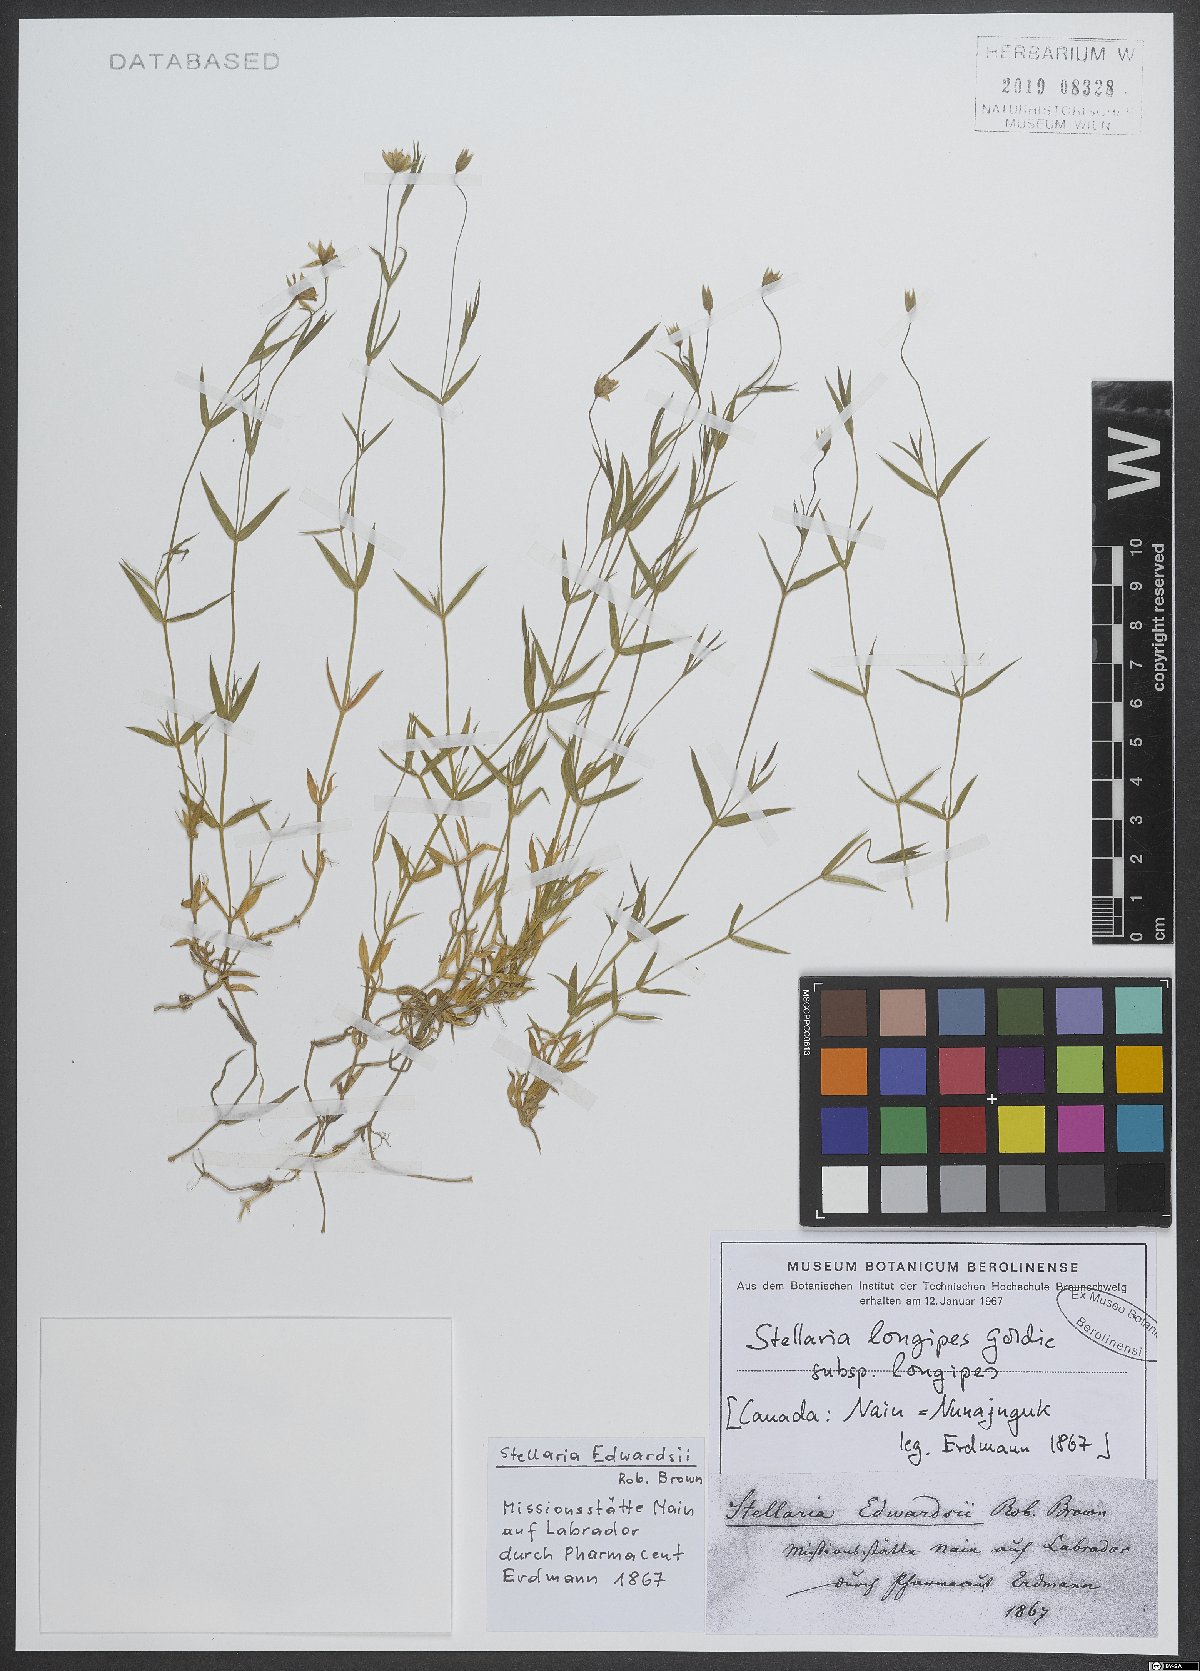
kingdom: Plantae
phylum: Tracheophyta
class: Magnoliopsida
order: Caryophyllales
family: Caryophyllaceae
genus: Stellaria
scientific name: Stellaria longipes
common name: Goldie's starwort
